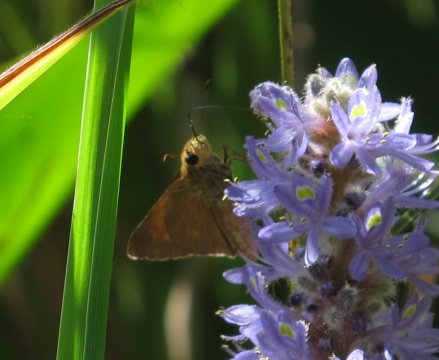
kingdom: Animalia
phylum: Arthropoda
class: Insecta
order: Lepidoptera
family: Hesperiidae
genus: Euphyes
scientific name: Euphyes pilatka
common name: Palatka Skipper
